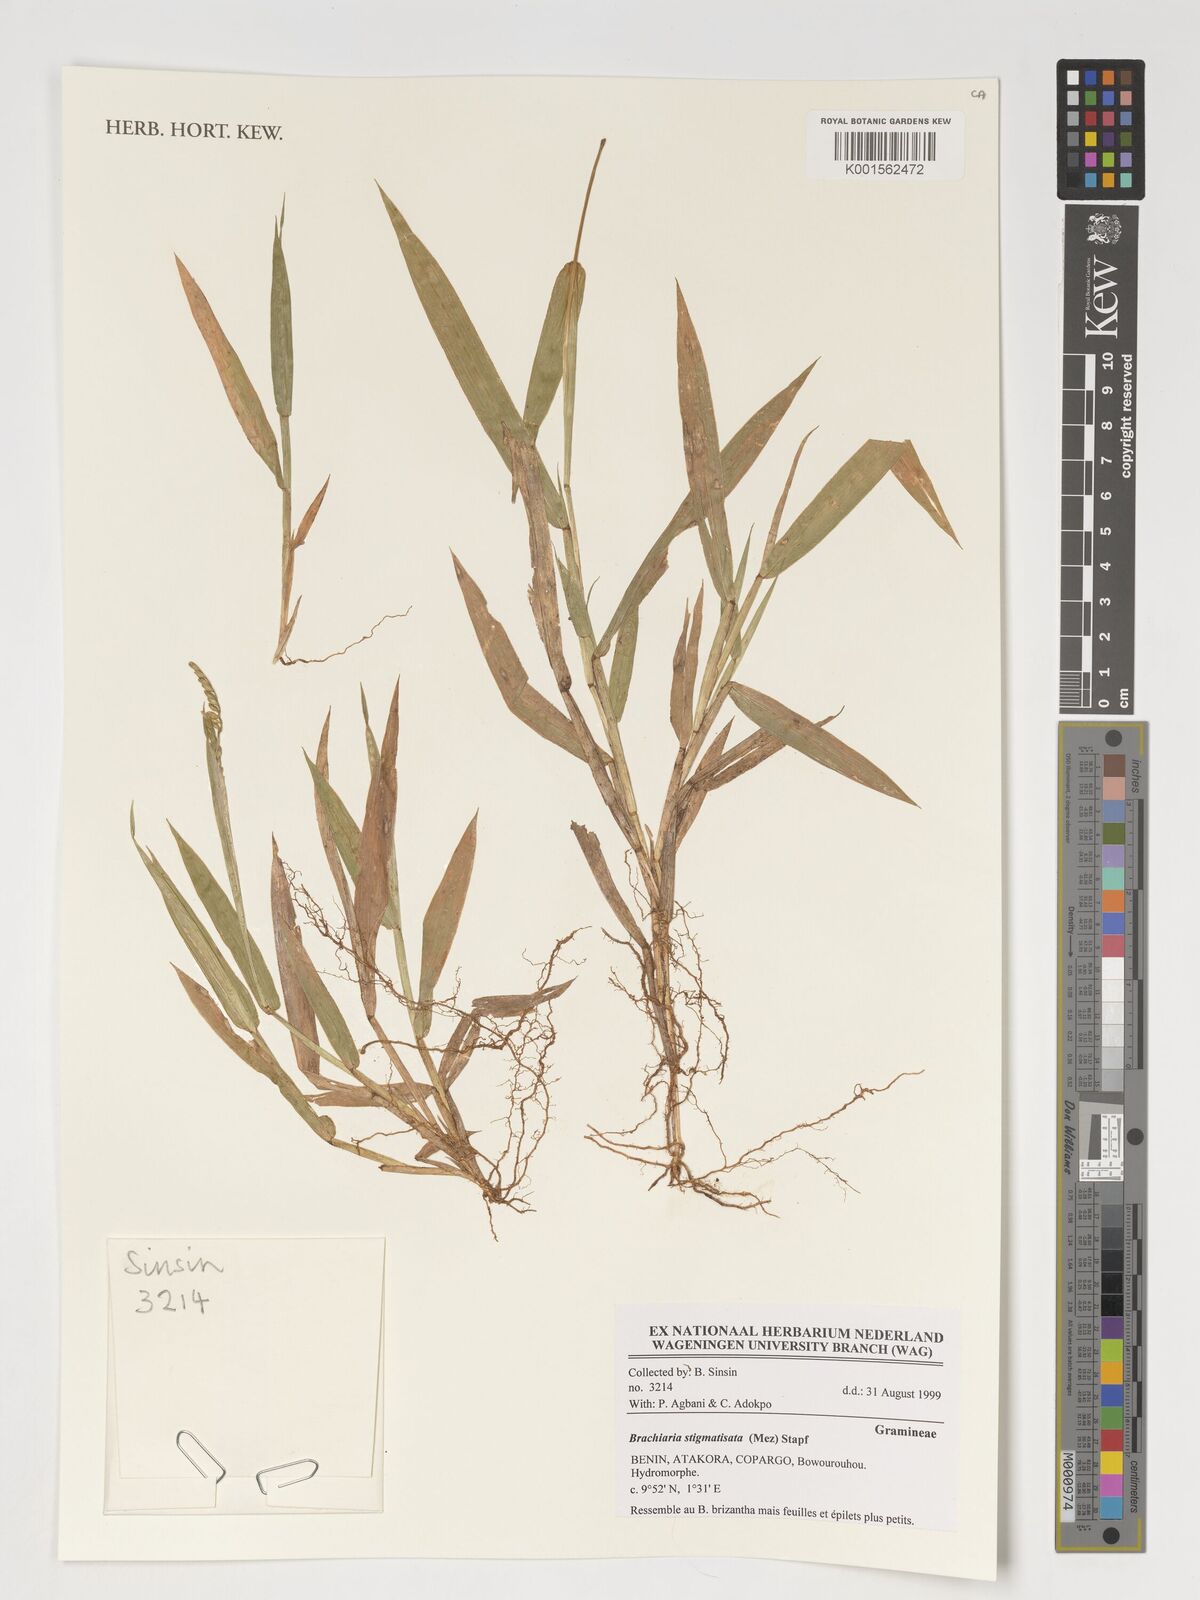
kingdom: Plantae
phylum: Tracheophyta
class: Liliopsida
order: Poales
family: Poaceae
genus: Urochloa
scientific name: Urochloa stigmatisata
